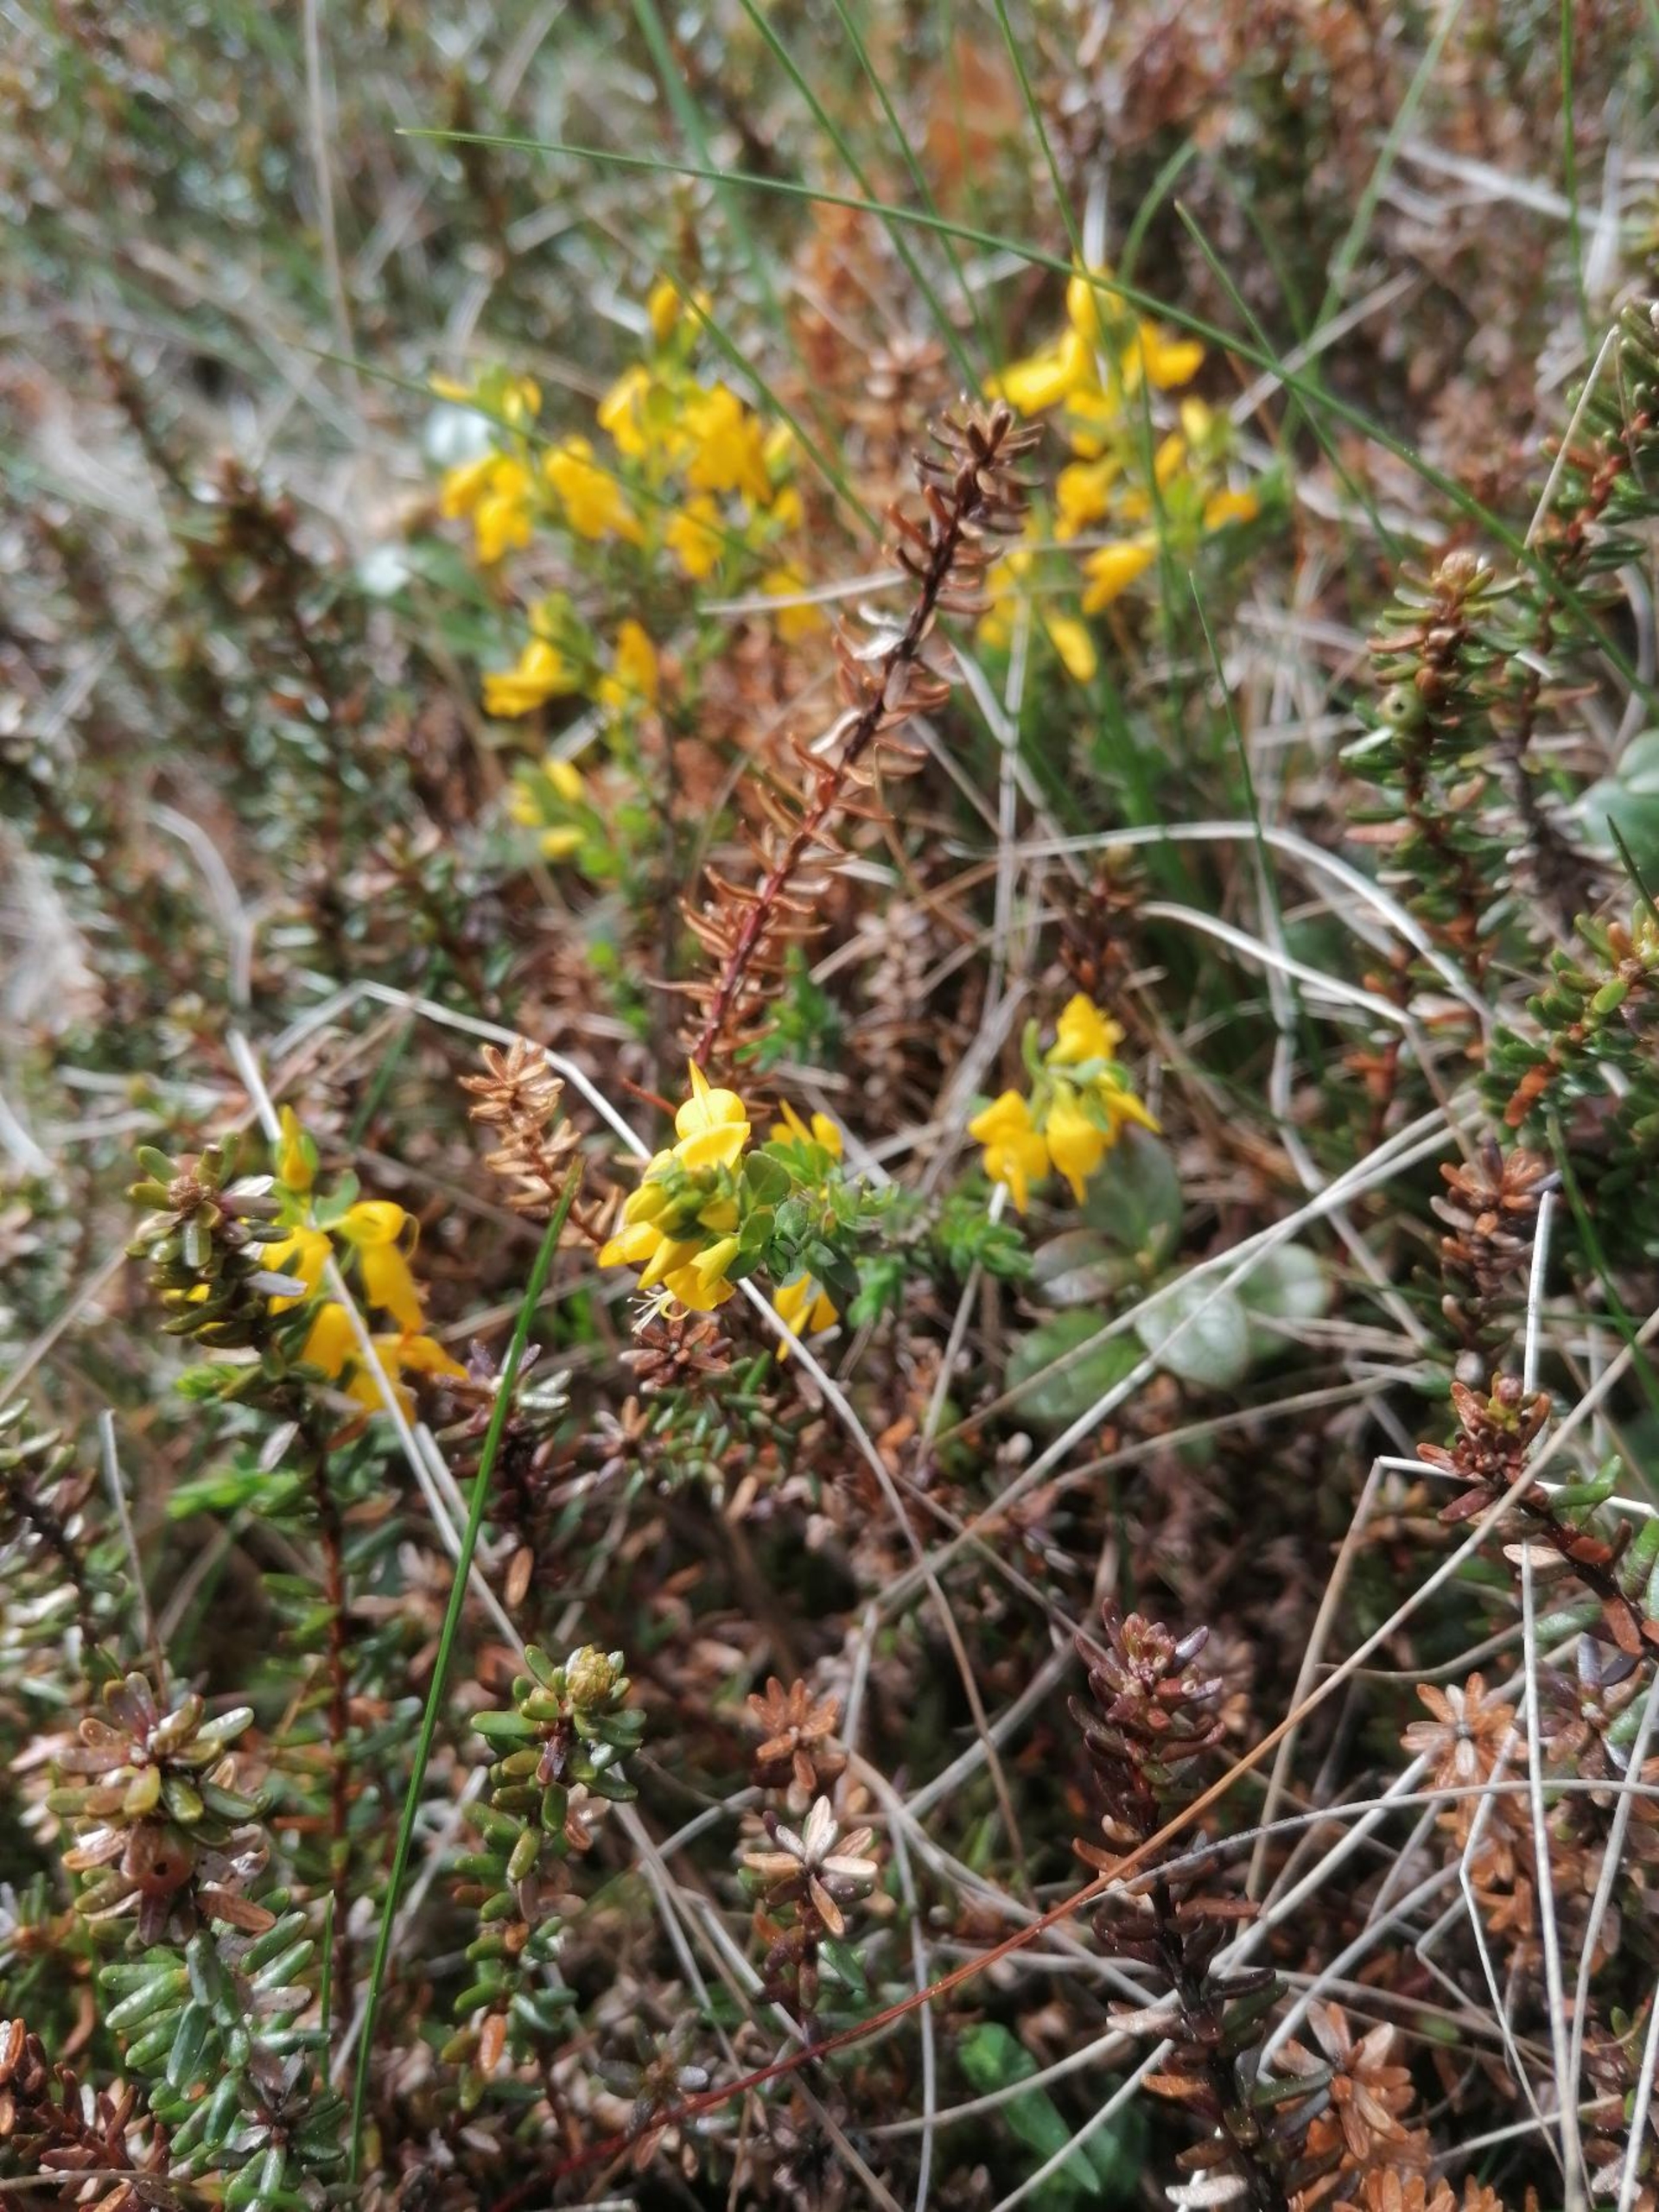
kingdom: Plantae
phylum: Tracheophyta
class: Magnoliopsida
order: Fabales
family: Fabaceae
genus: Genista
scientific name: Genista anglica
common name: Engelsk visse
